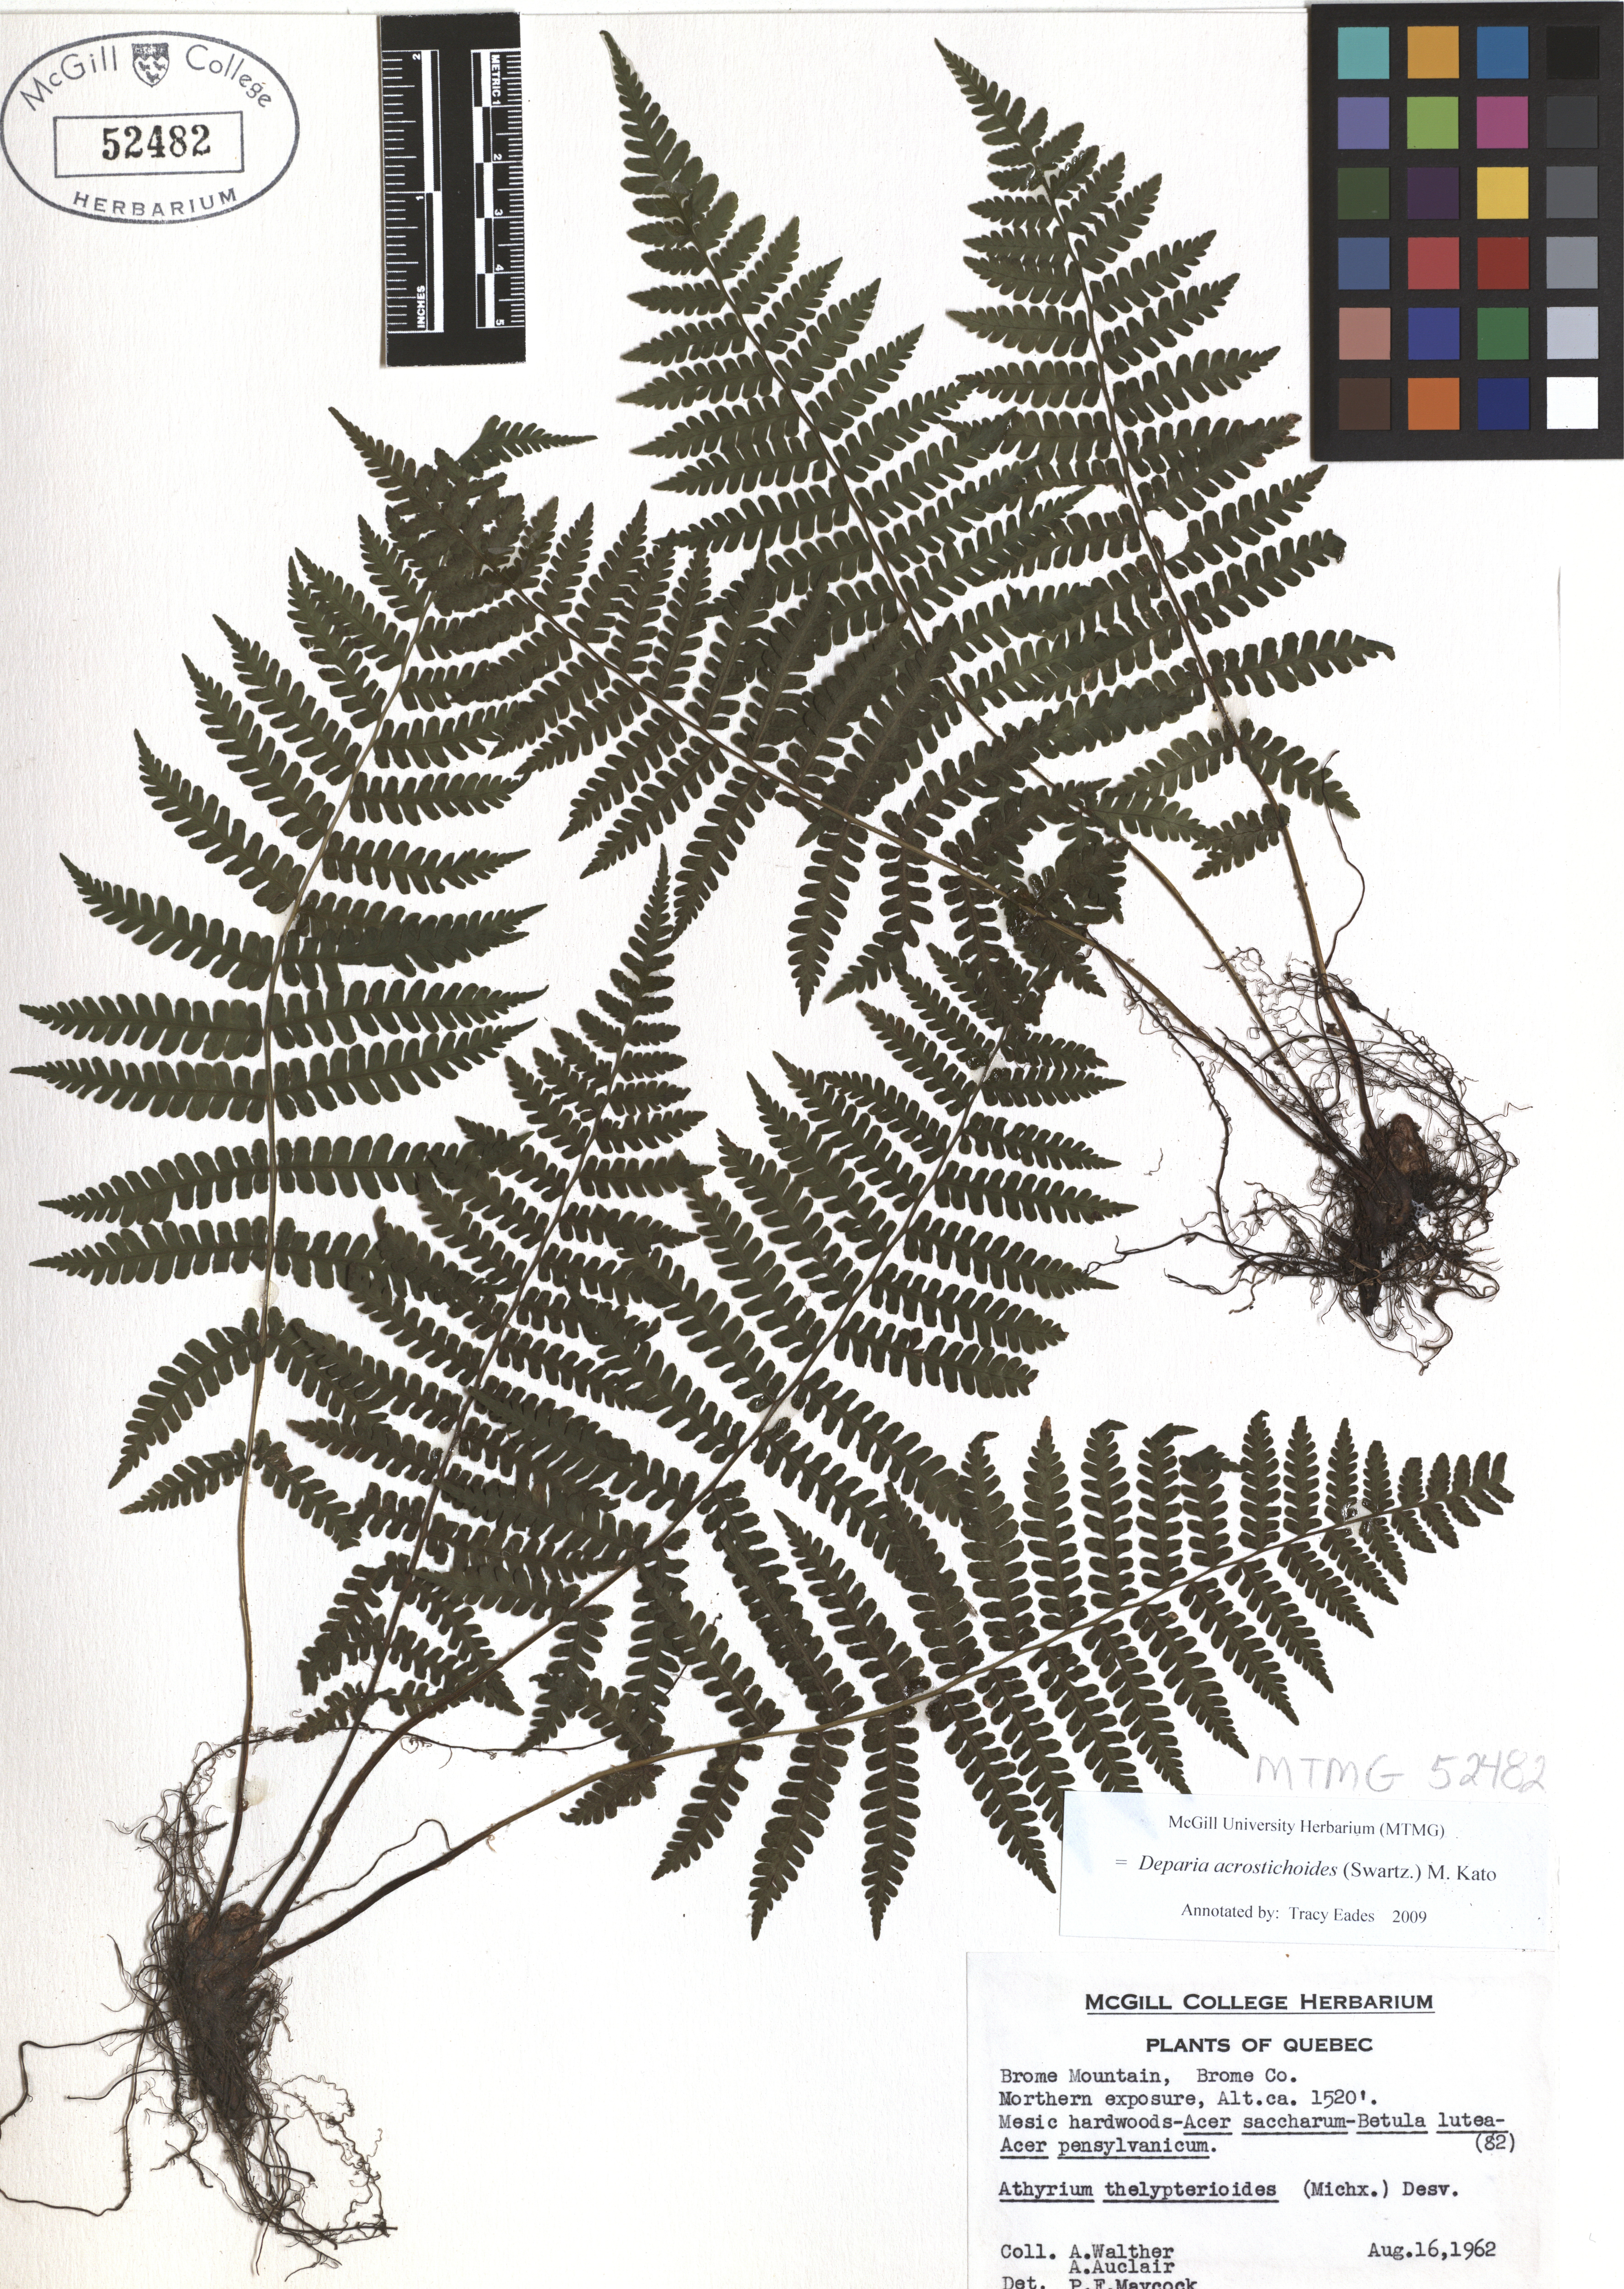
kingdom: Plantae
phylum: Tracheophyta
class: Polypodiopsida
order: Polypodiales
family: Athyriaceae
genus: Deparia
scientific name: Deparia acrostichoides
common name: Silver false spleenwort
